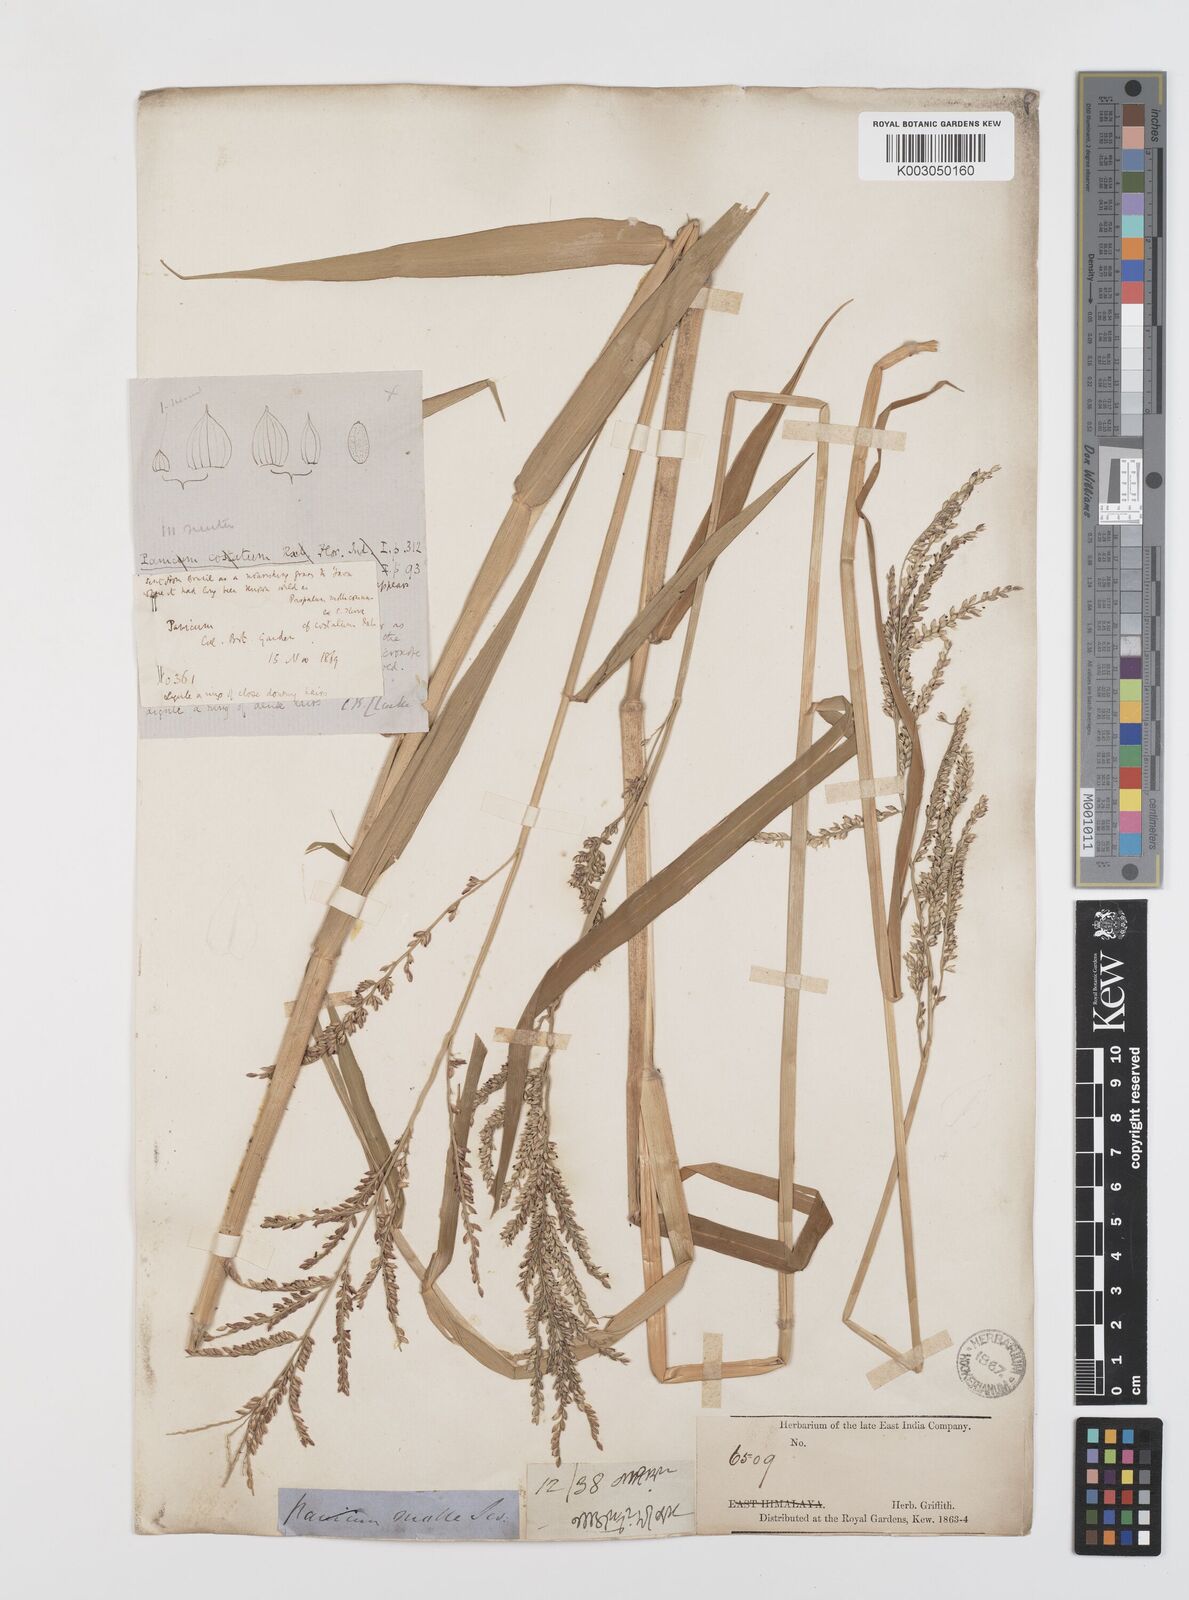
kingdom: Plantae
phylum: Tracheophyta
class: Liliopsida
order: Poales
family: Poaceae
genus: Urochloa
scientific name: Urochloa mutica
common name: Para grass
